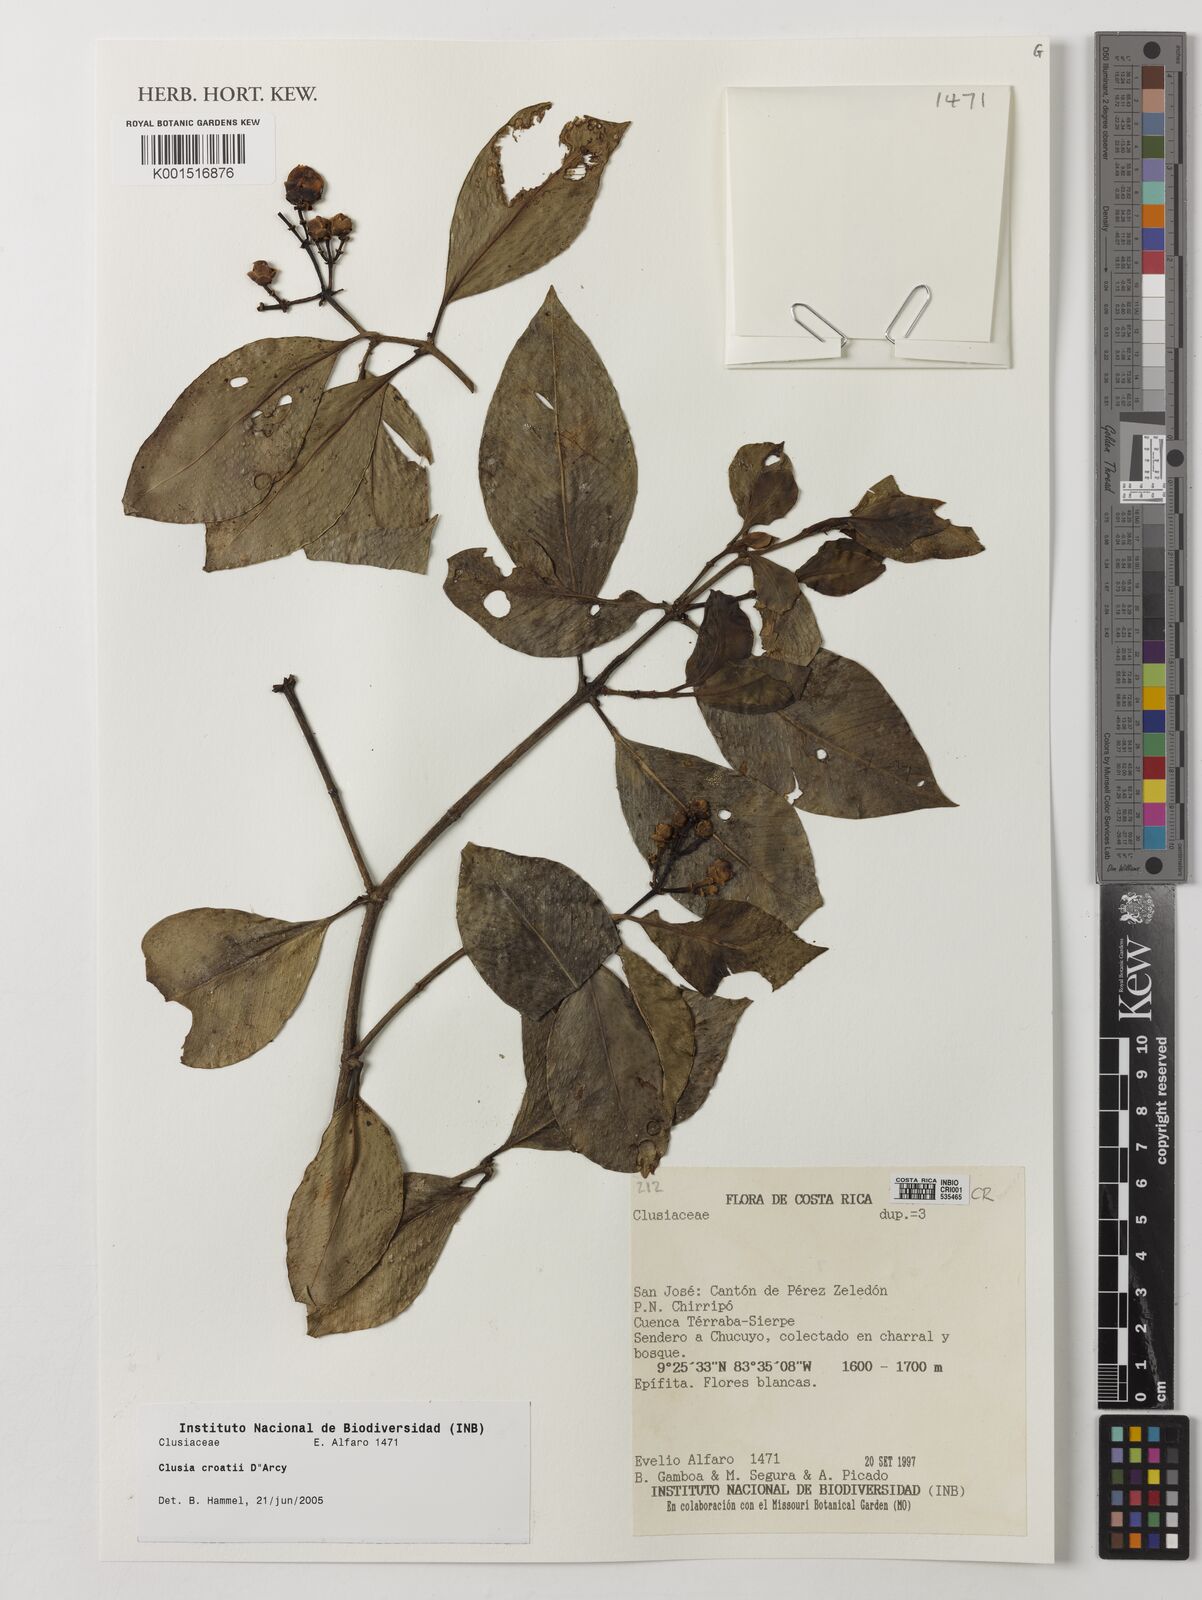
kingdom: Plantae
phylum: Tracheophyta
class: Magnoliopsida
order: Malpighiales
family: Clusiaceae
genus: Clusia
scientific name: Clusia croatii
